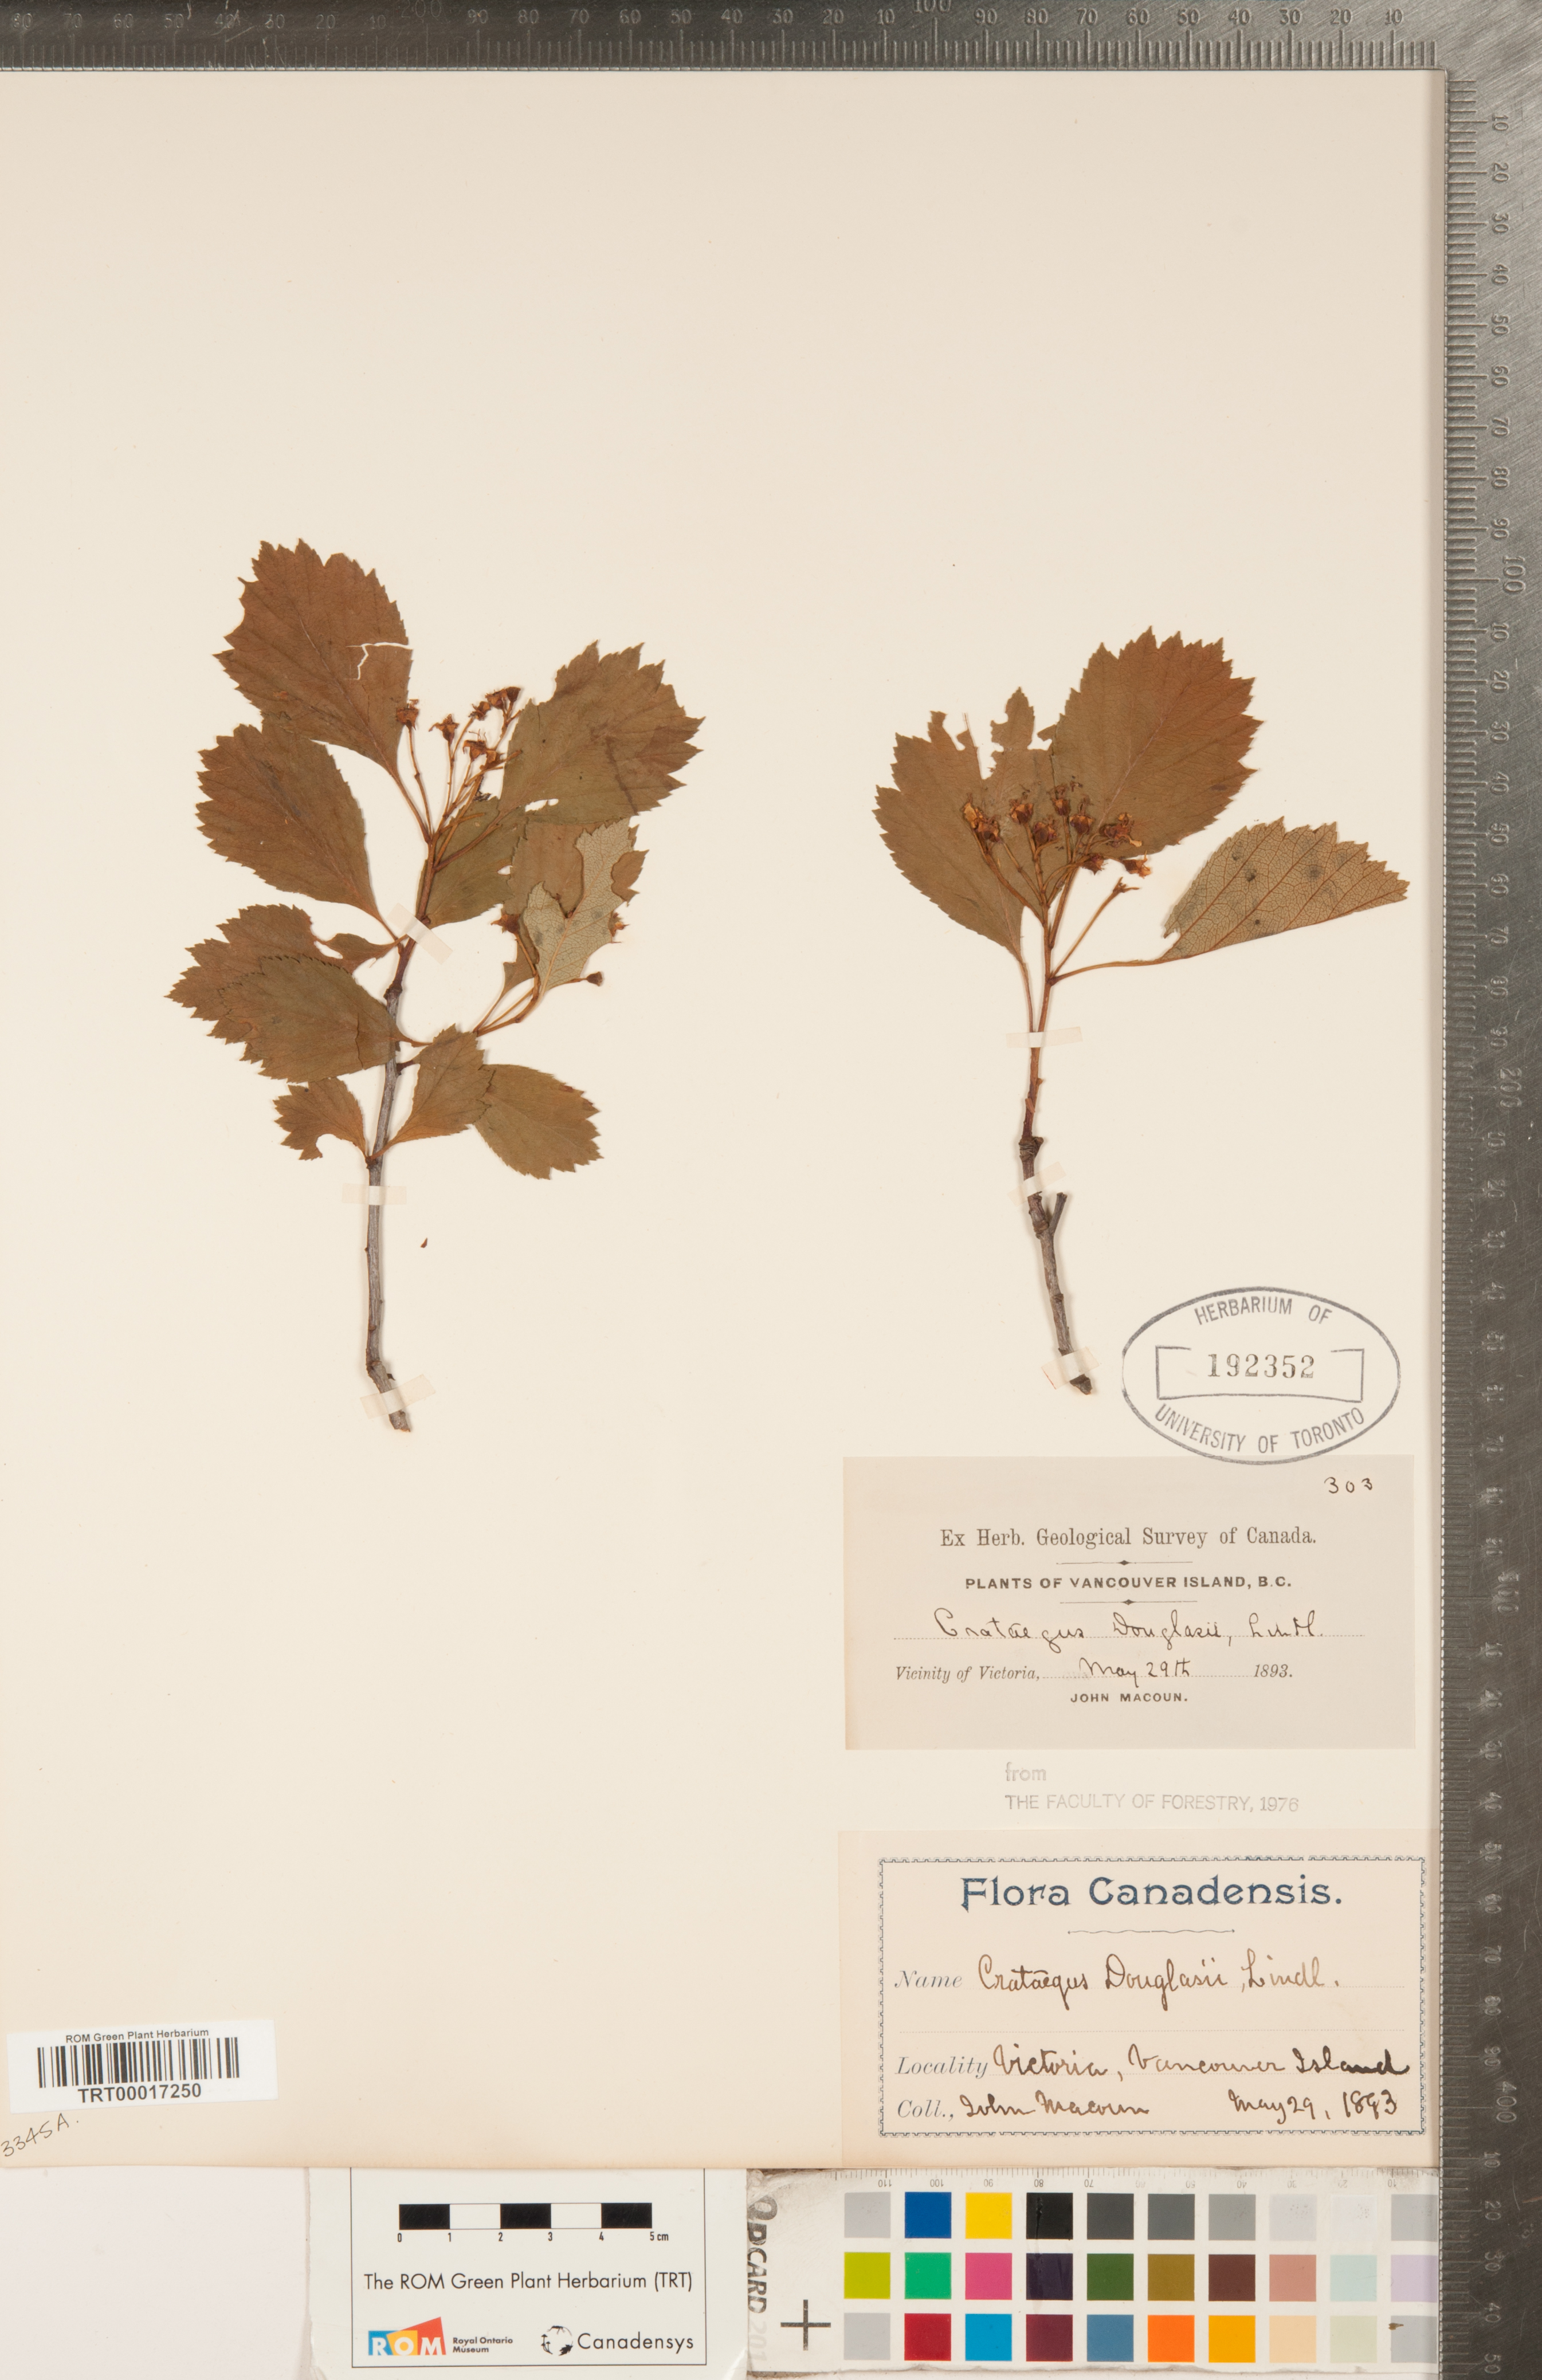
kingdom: Plantae
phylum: Tracheophyta
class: Magnoliopsida
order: Rosales
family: Rosaceae
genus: Crataegus
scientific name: Crataegus douglasii
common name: Black hawthorn
